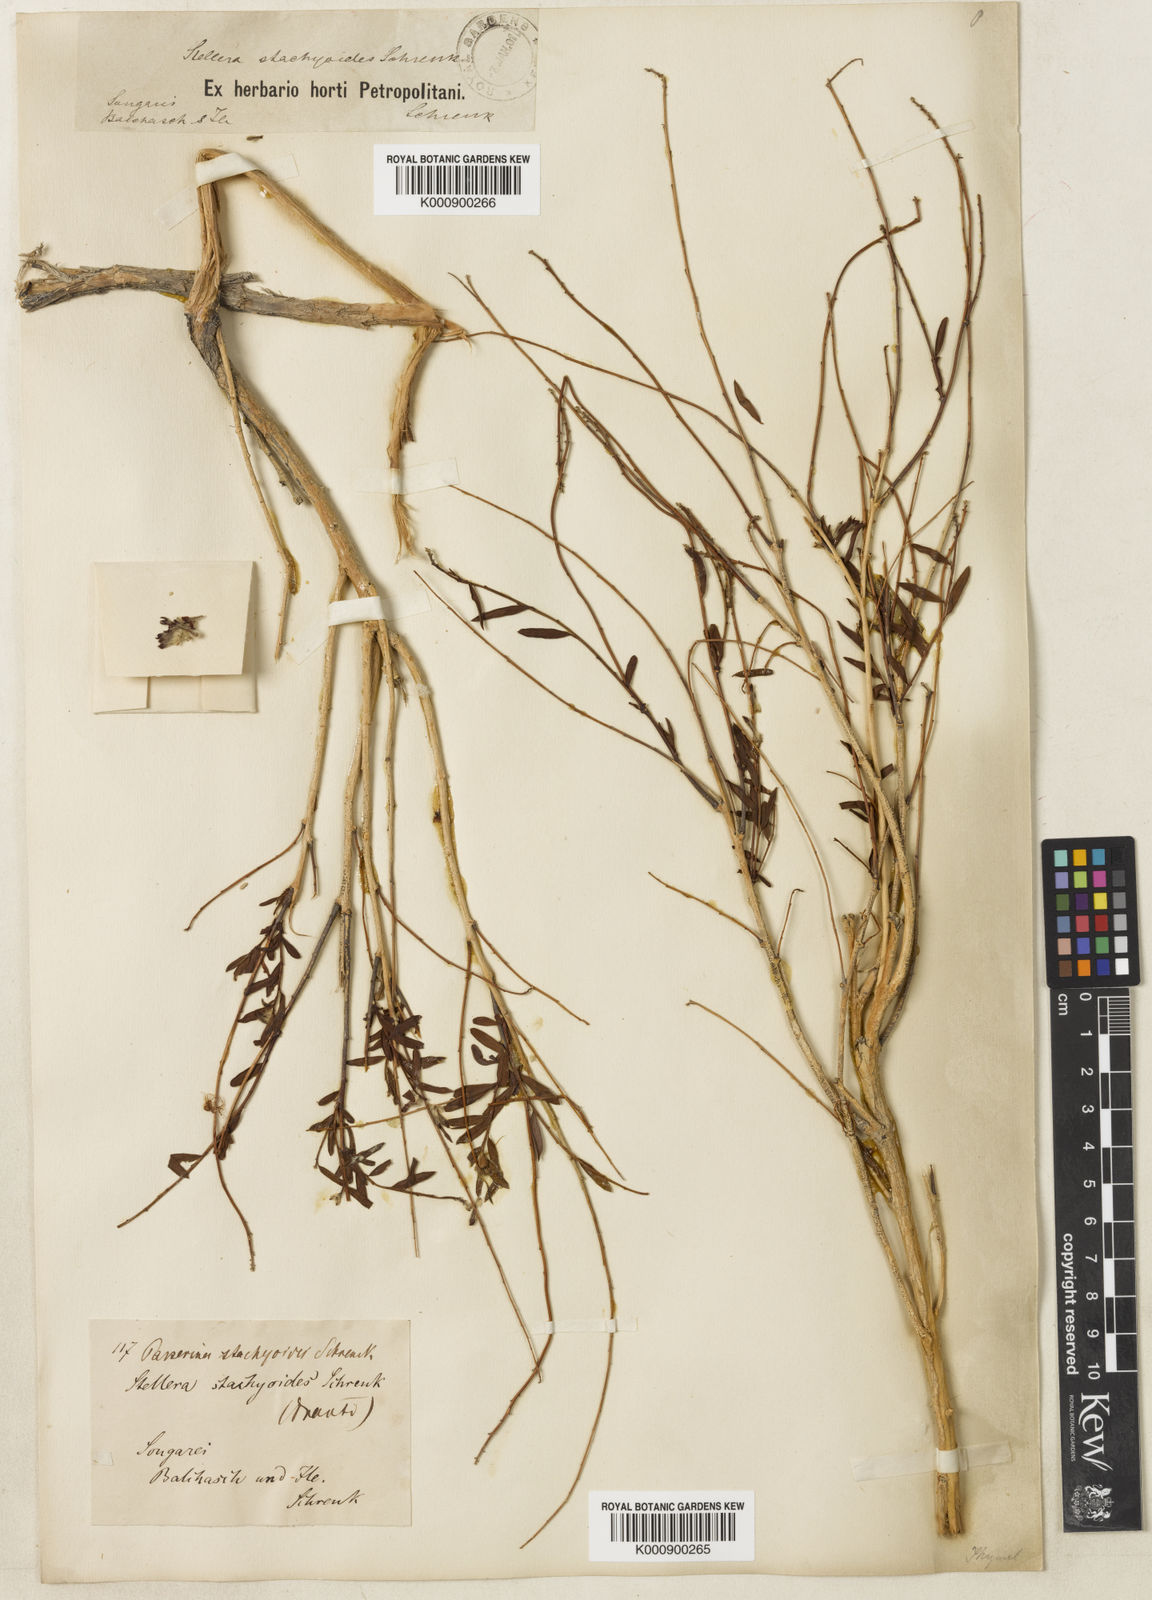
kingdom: Plantae
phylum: Tracheophyta
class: Magnoliopsida
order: Malvales
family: Thymelaeaceae
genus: Diarthron
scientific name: Diarthron ammodendron
